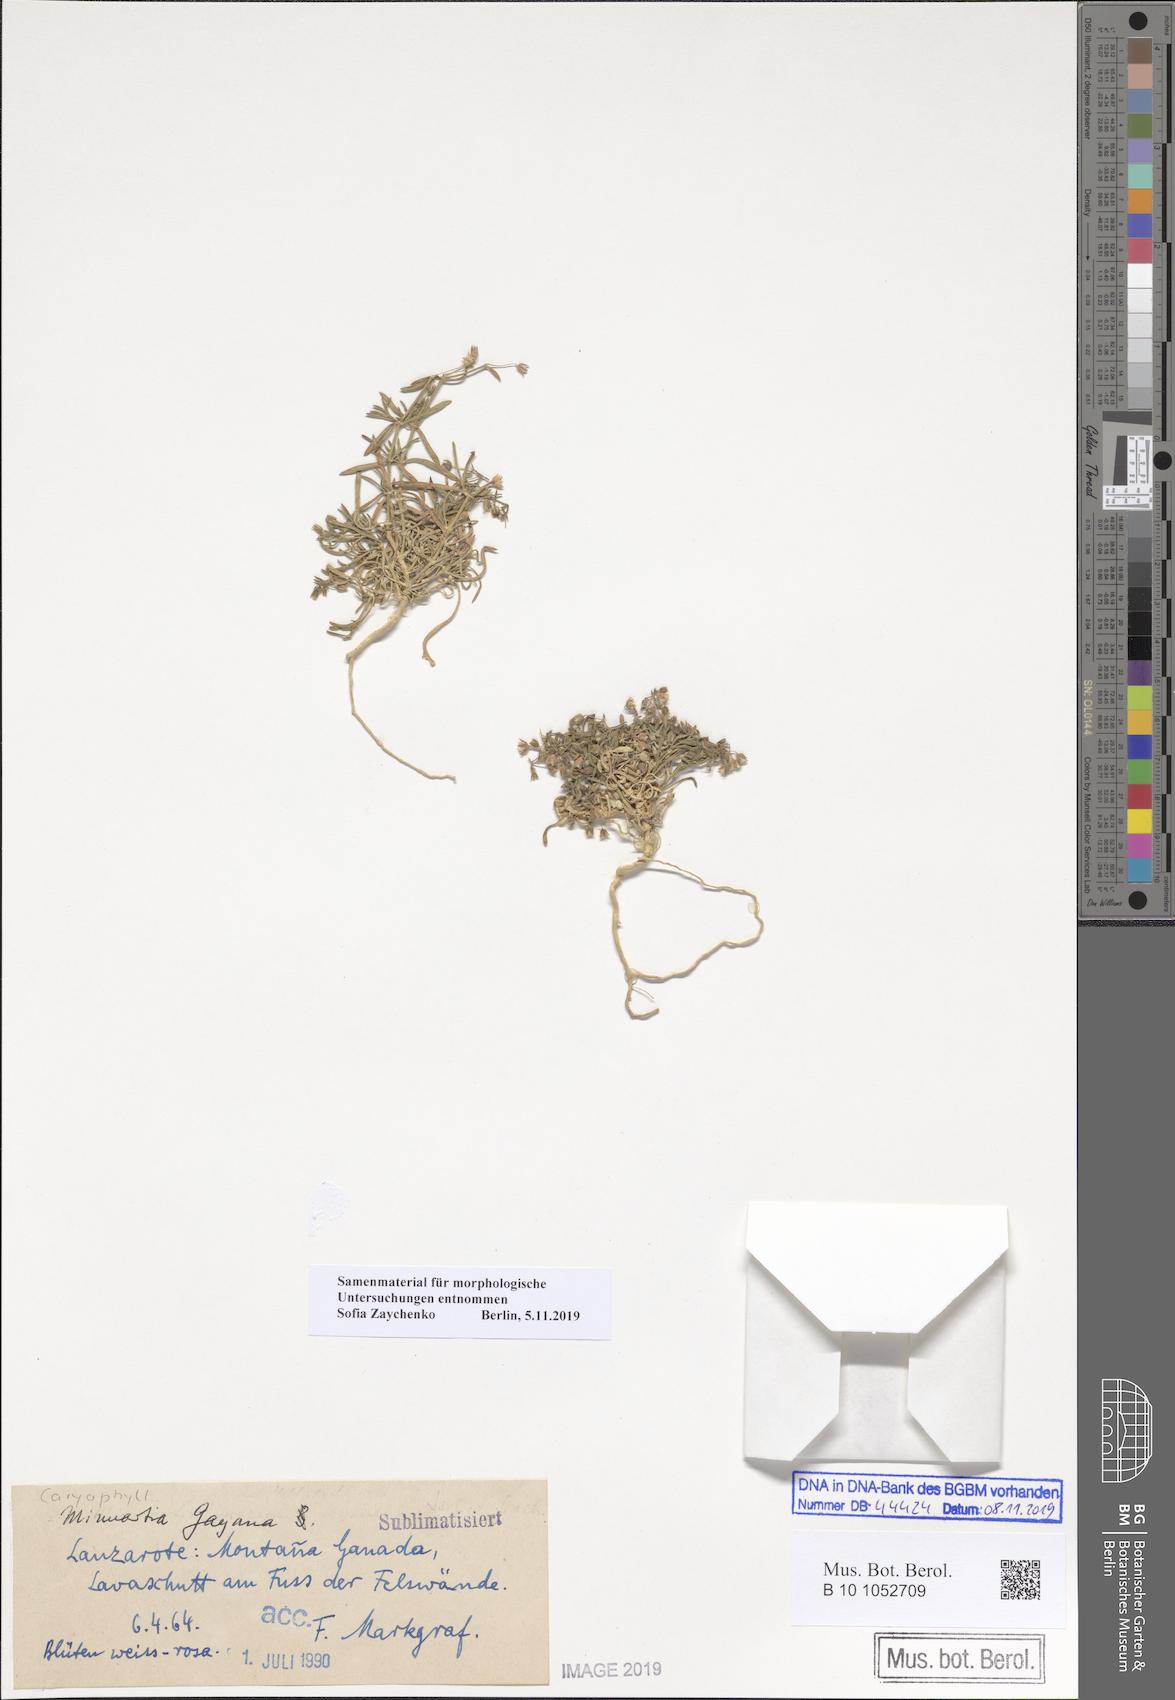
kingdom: Plantae
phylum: Tracheophyta
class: Magnoliopsida
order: Caryophyllales
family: Caryophyllaceae
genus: Rhodalsine
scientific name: Rhodalsine geniculata
